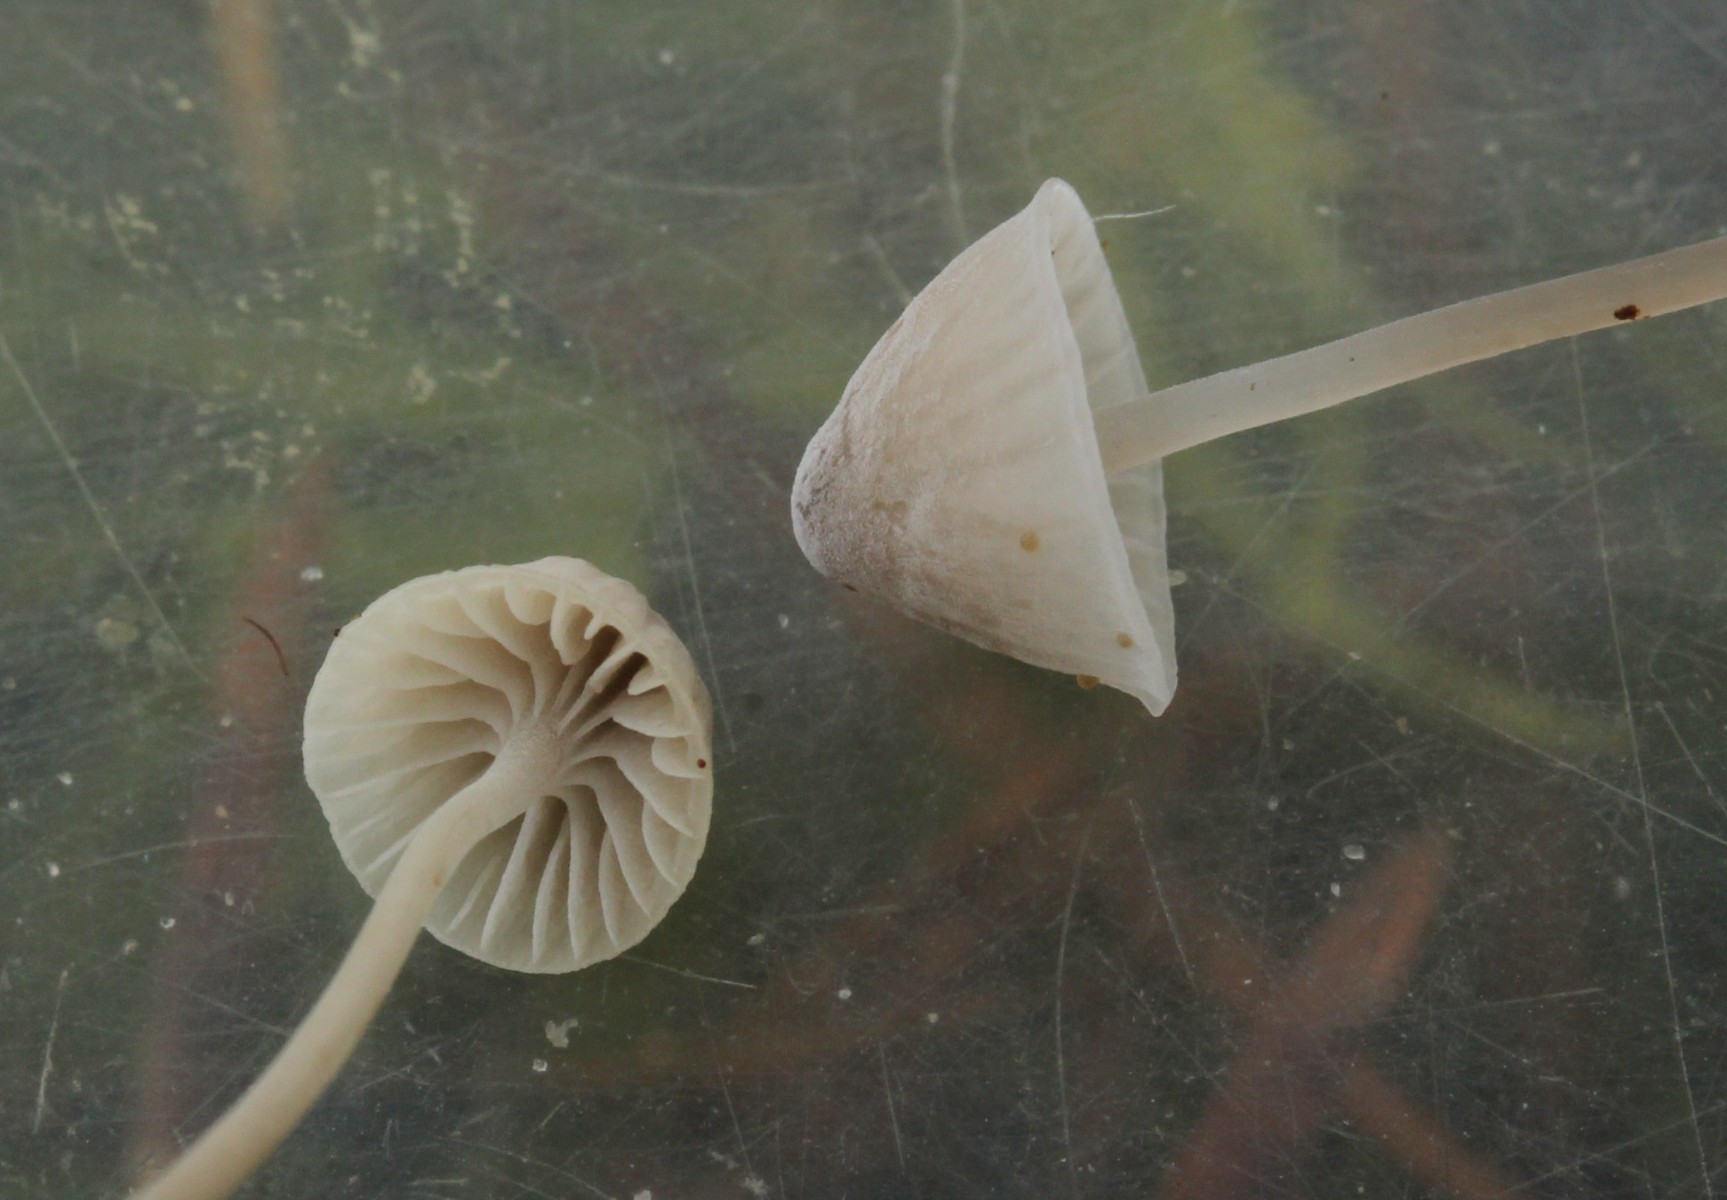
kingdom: Fungi
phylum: Basidiomycota
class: Agaricomycetes
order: Agaricales
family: Mycenaceae
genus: Mycena
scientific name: Mycena cinerella
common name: mel-huesvamp
